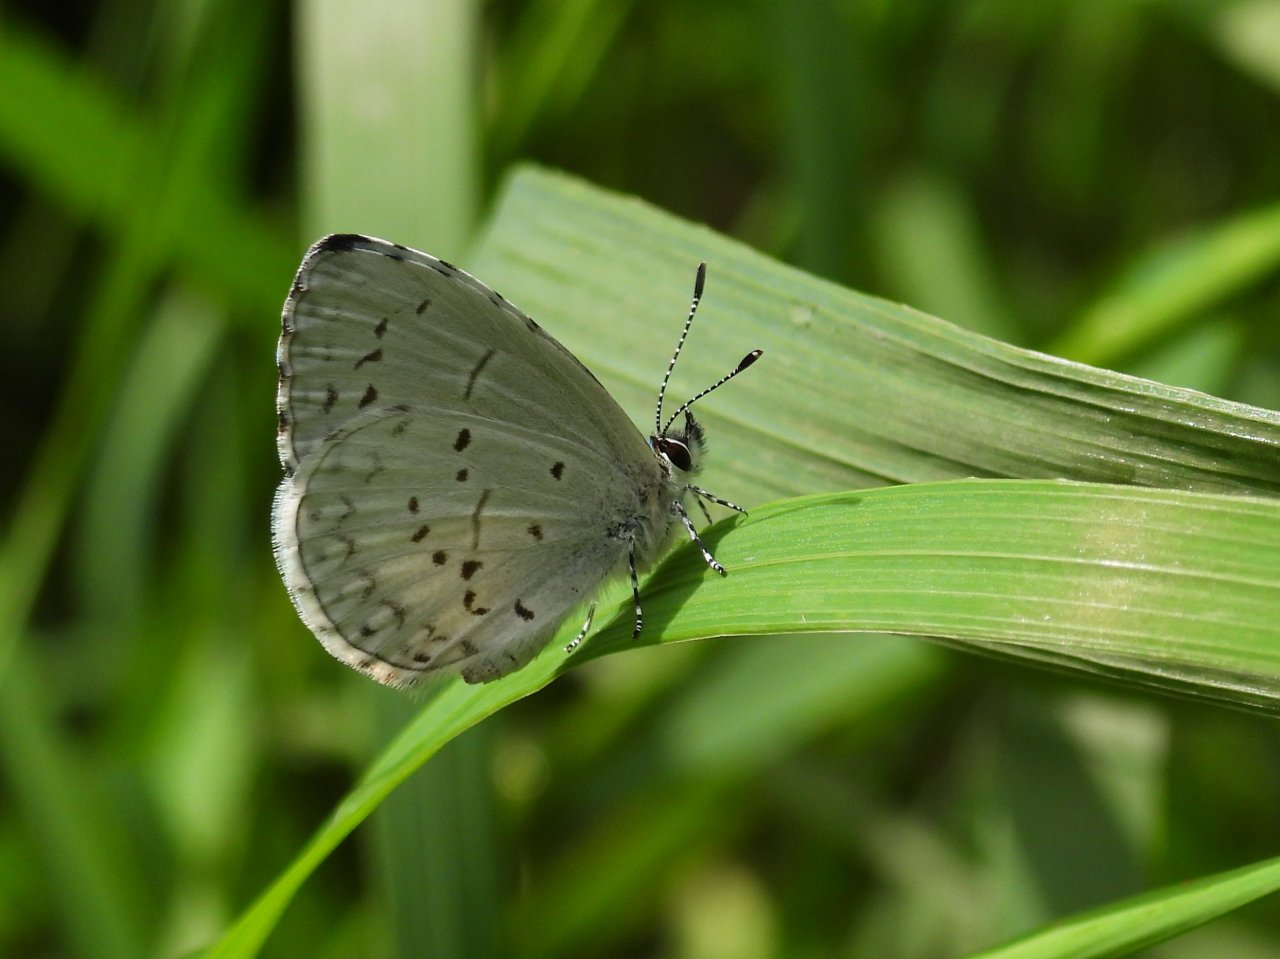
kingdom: Animalia
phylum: Arthropoda
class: Insecta
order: Lepidoptera
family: Lycaenidae
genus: Celastrina
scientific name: Celastrina
